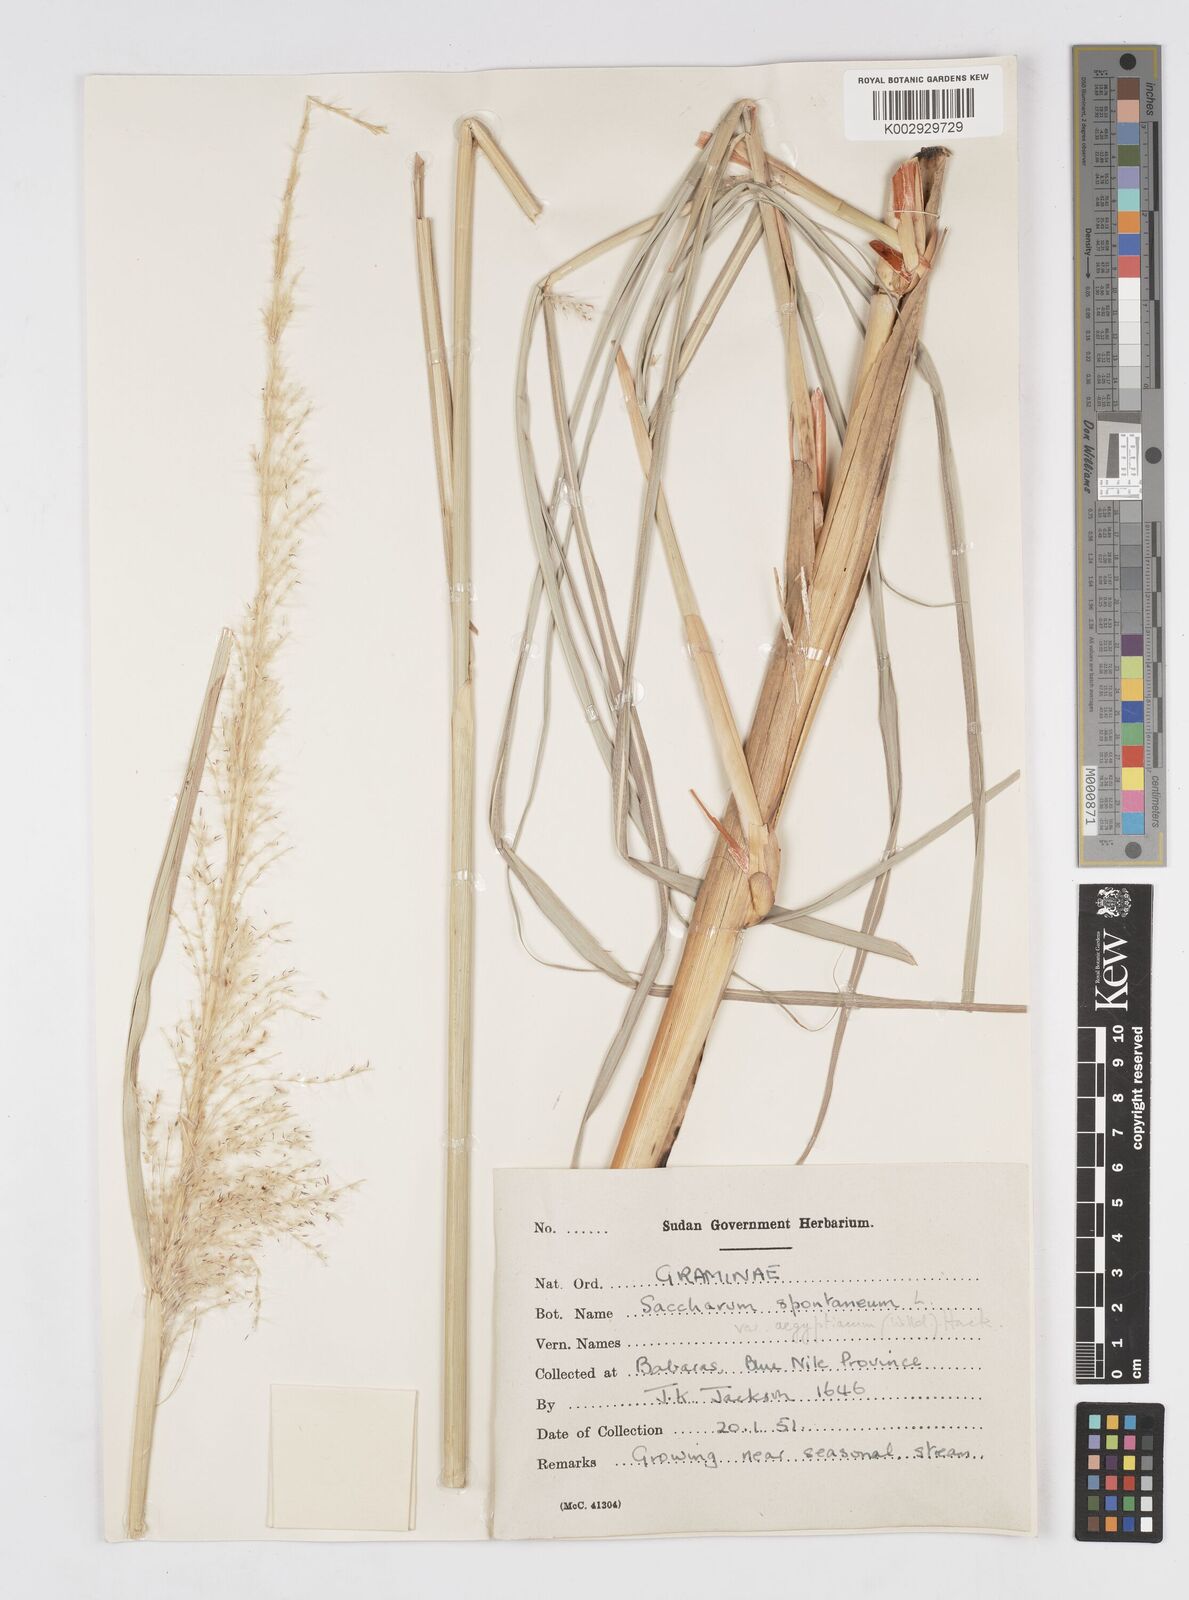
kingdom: Plantae
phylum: Tracheophyta
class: Liliopsida
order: Poales
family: Poaceae
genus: Saccharum
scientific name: Saccharum spontaneum
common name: Wild sugarcane
